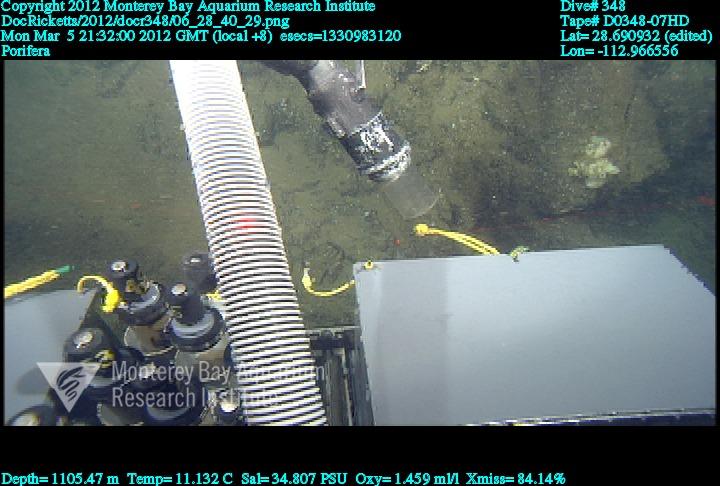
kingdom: Animalia
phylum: Porifera
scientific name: Porifera
